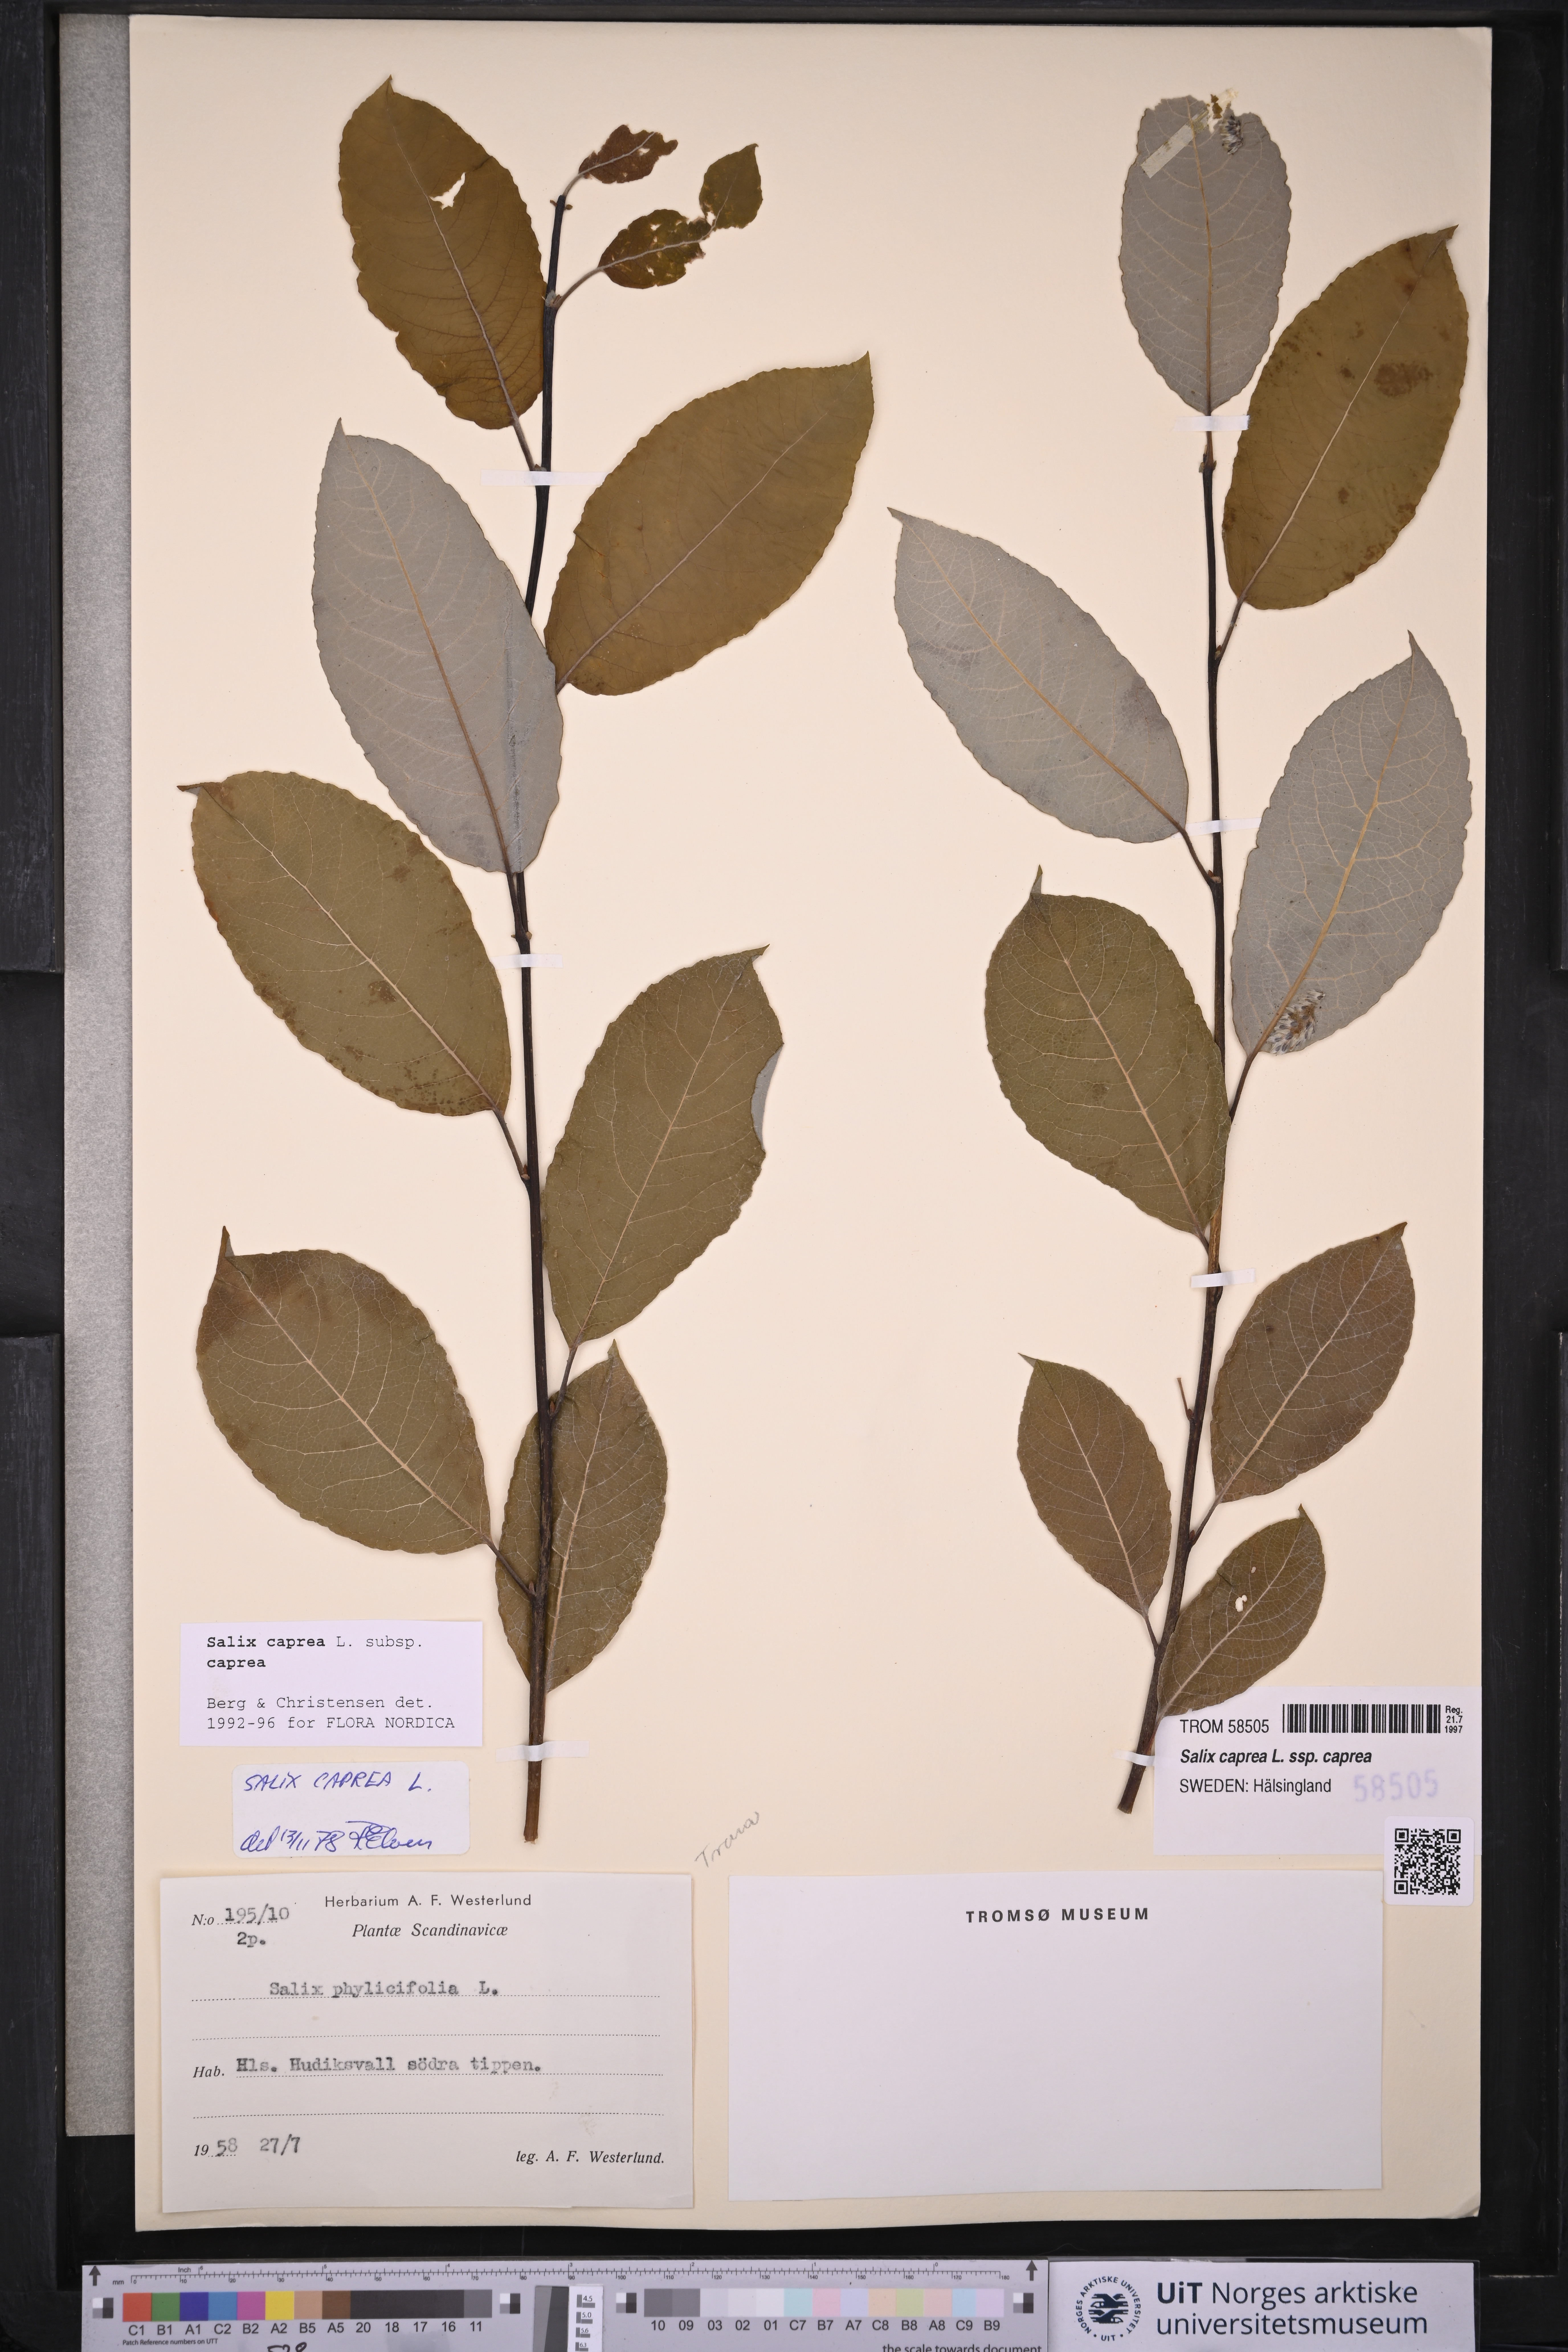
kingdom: Plantae
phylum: Tracheophyta
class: Magnoliopsida
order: Malpighiales
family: Salicaceae
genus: Salix
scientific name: Salix caprea
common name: Goat willow
